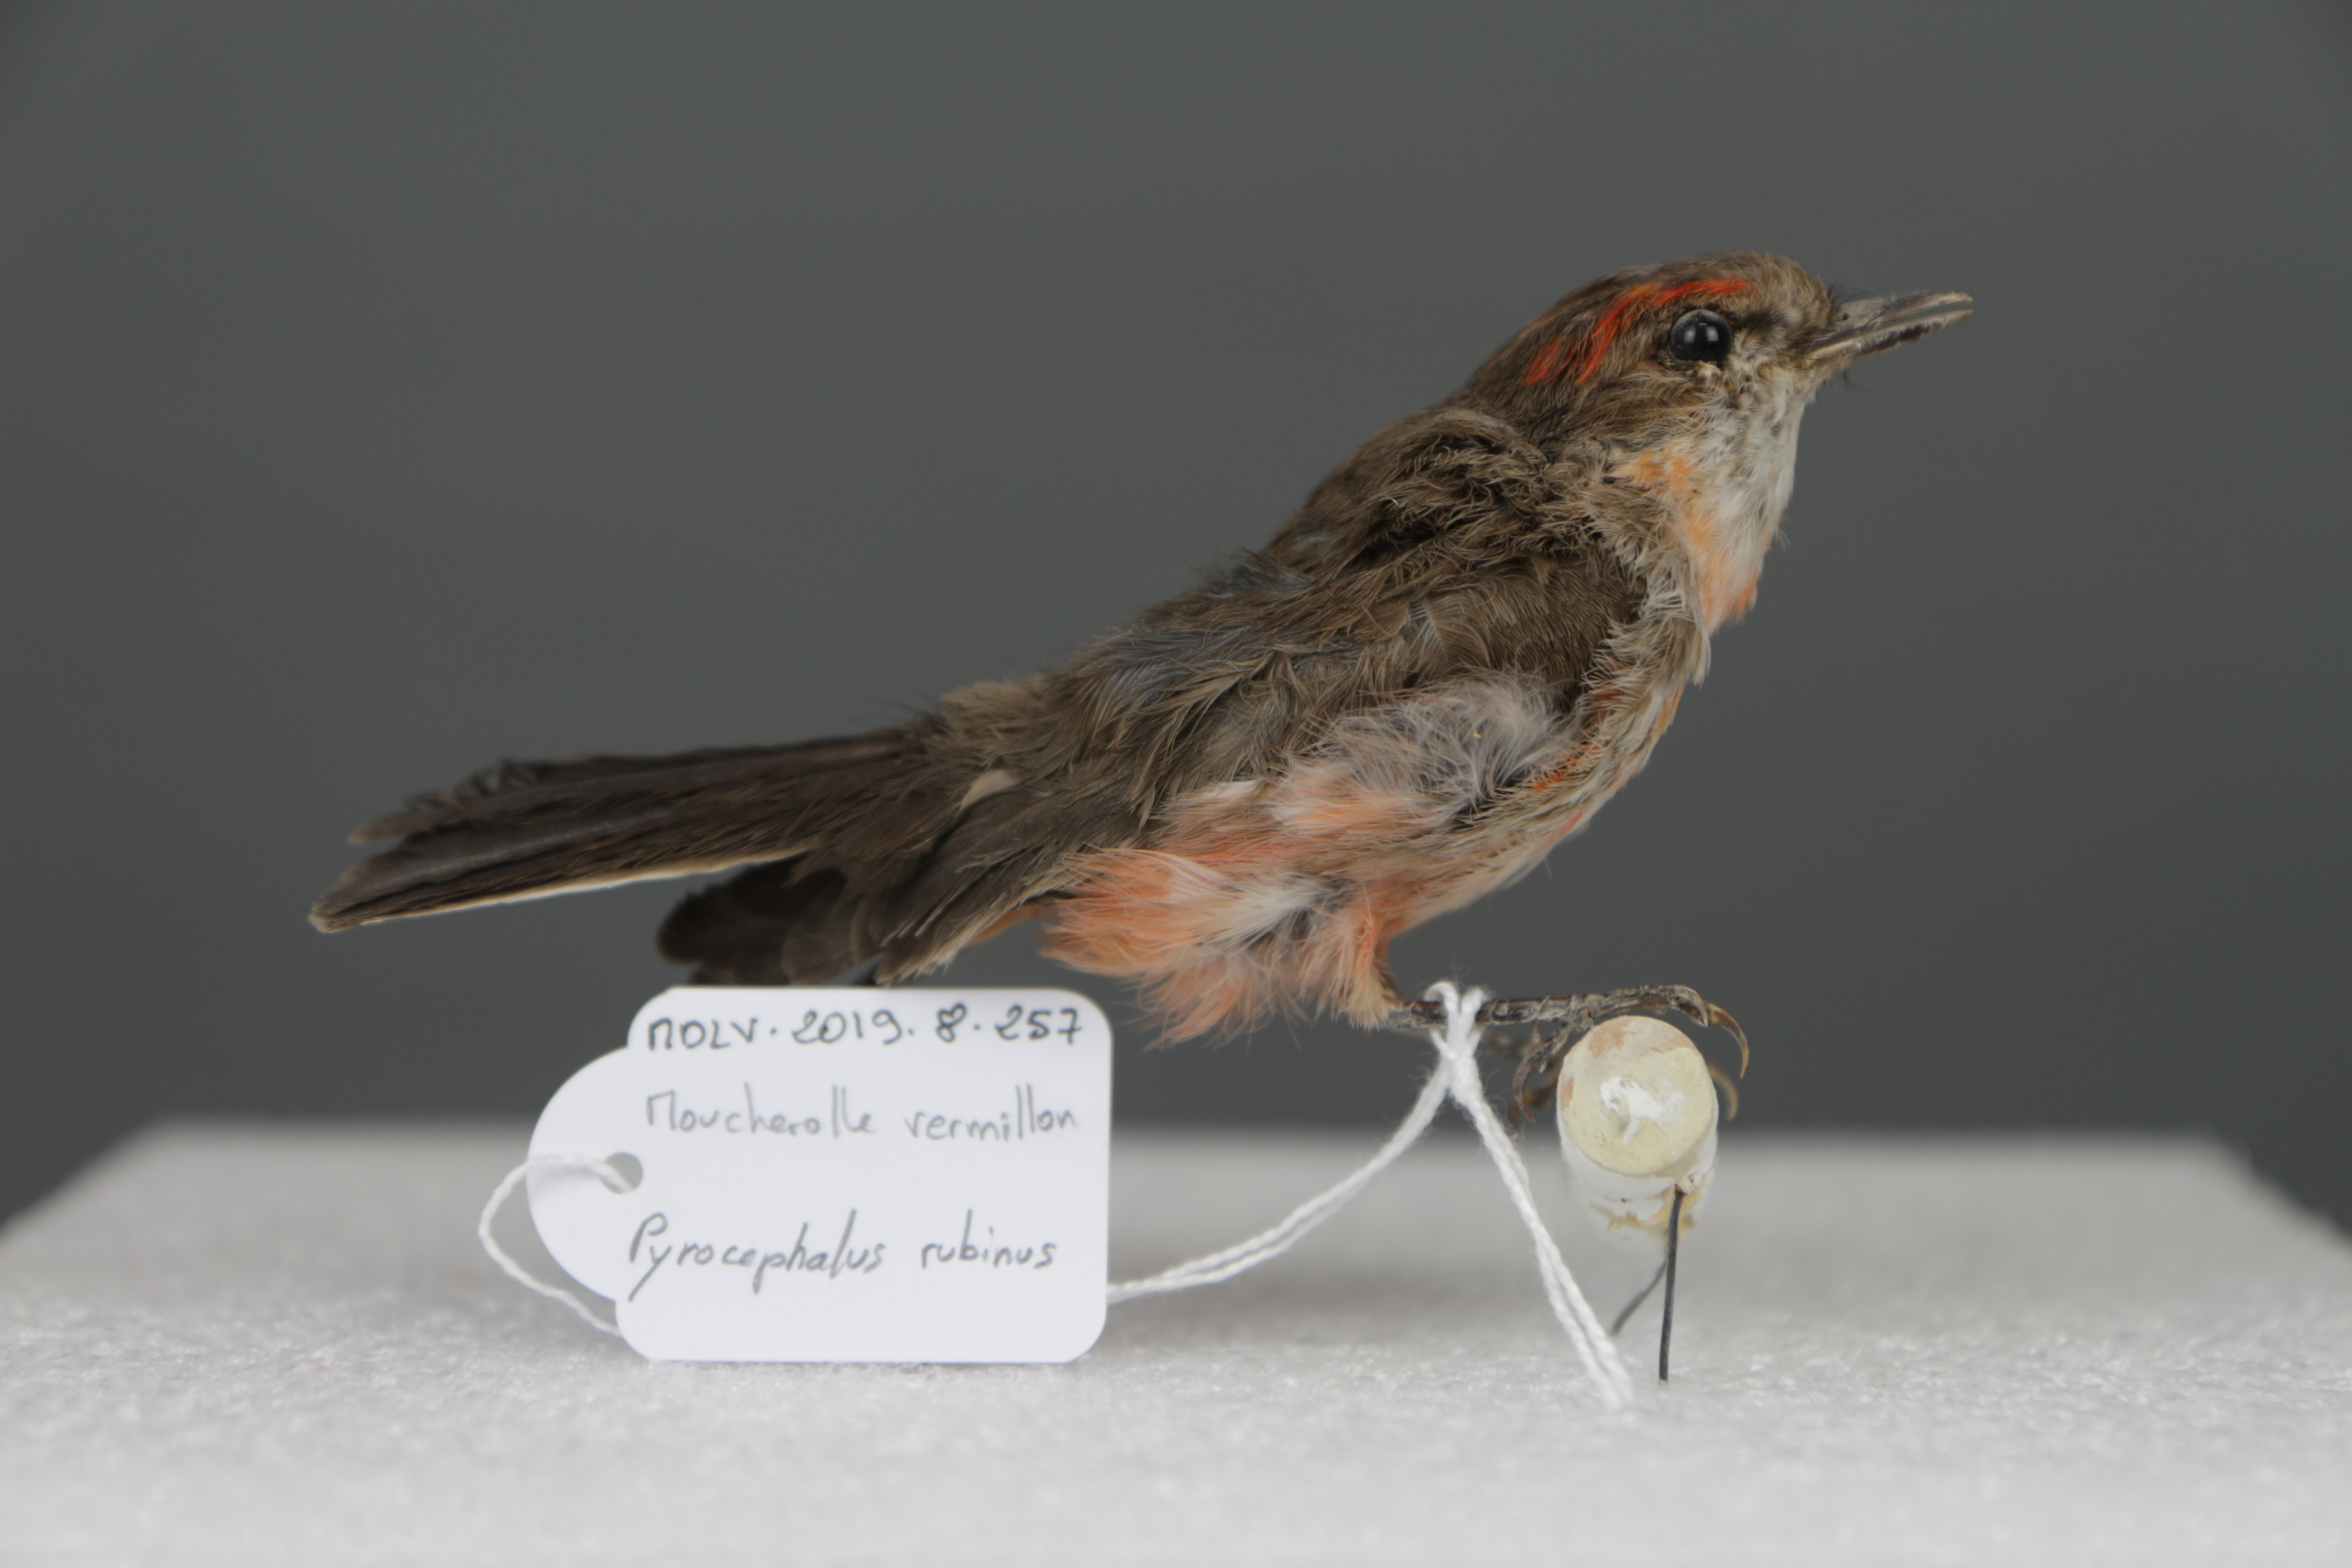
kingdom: Animalia
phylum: Chordata
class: Aves
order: Passeriformes
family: Tyrannidae
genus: Pyrocephalus
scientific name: Pyrocephalus rubinus
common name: Vermilion flycatcher
